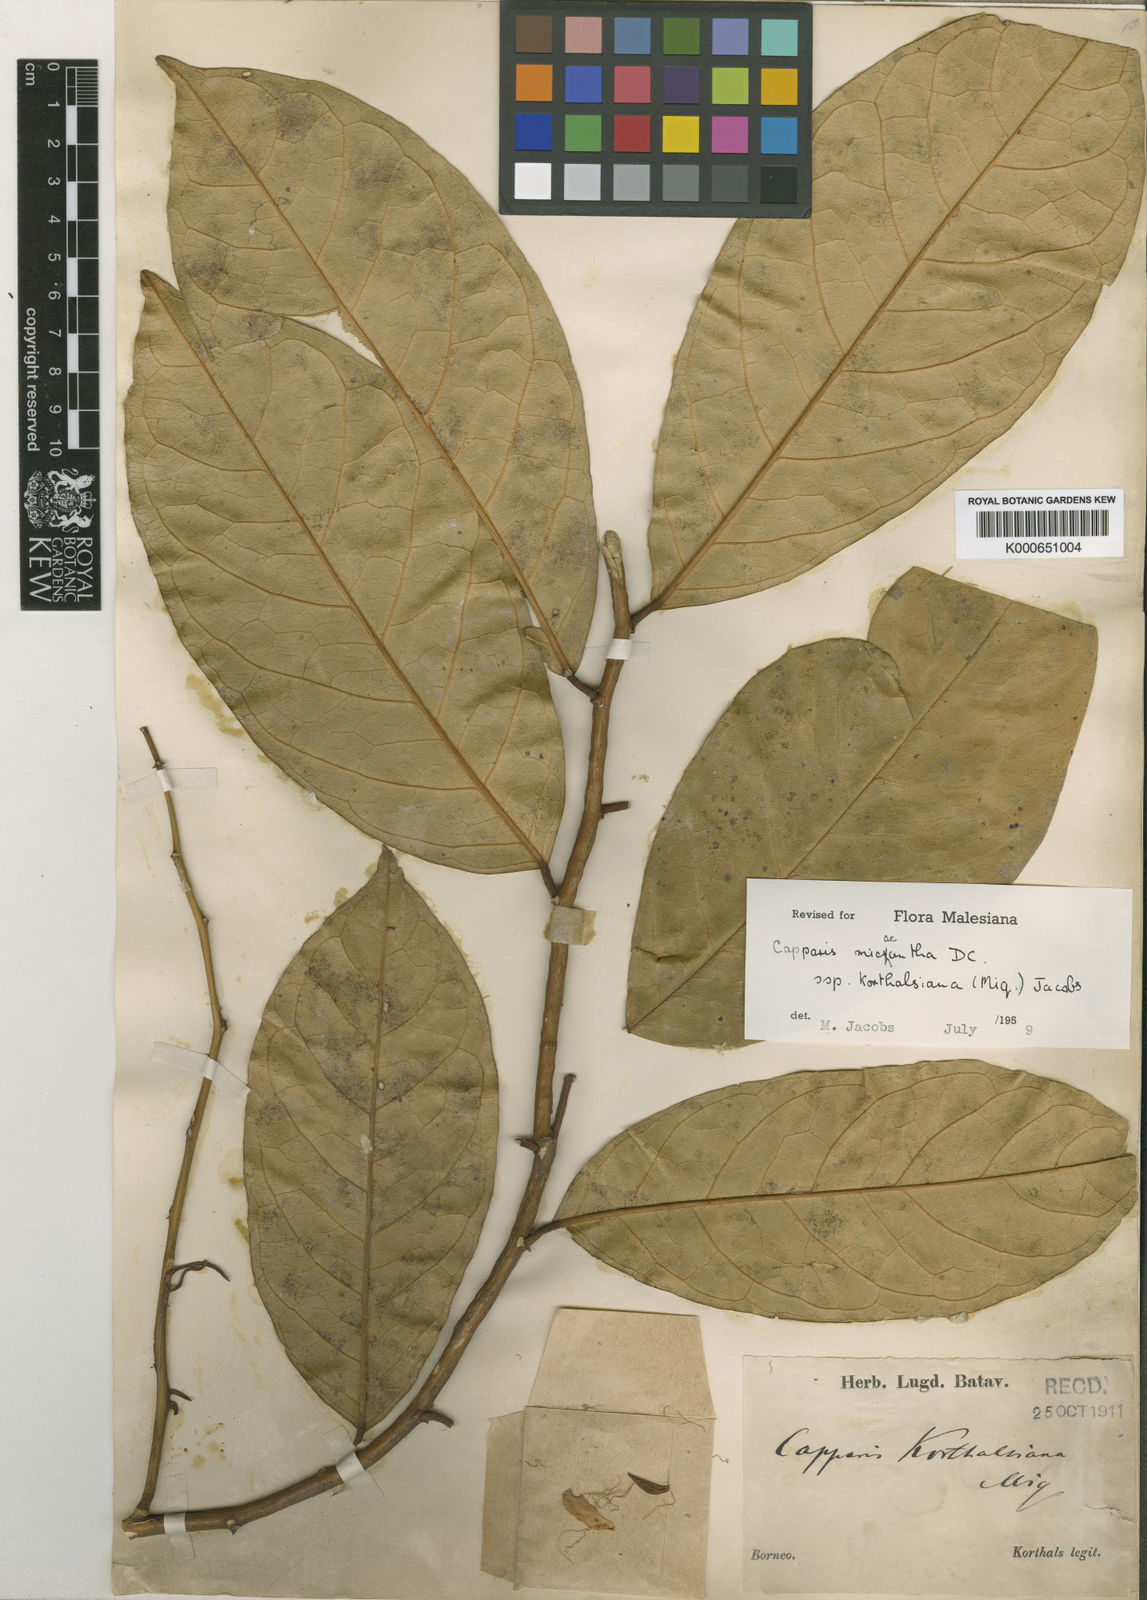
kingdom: Plantae
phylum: Tracheophyta
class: Magnoliopsida
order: Brassicales
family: Capparaceae
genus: Capparis
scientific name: Capparis micracantha
